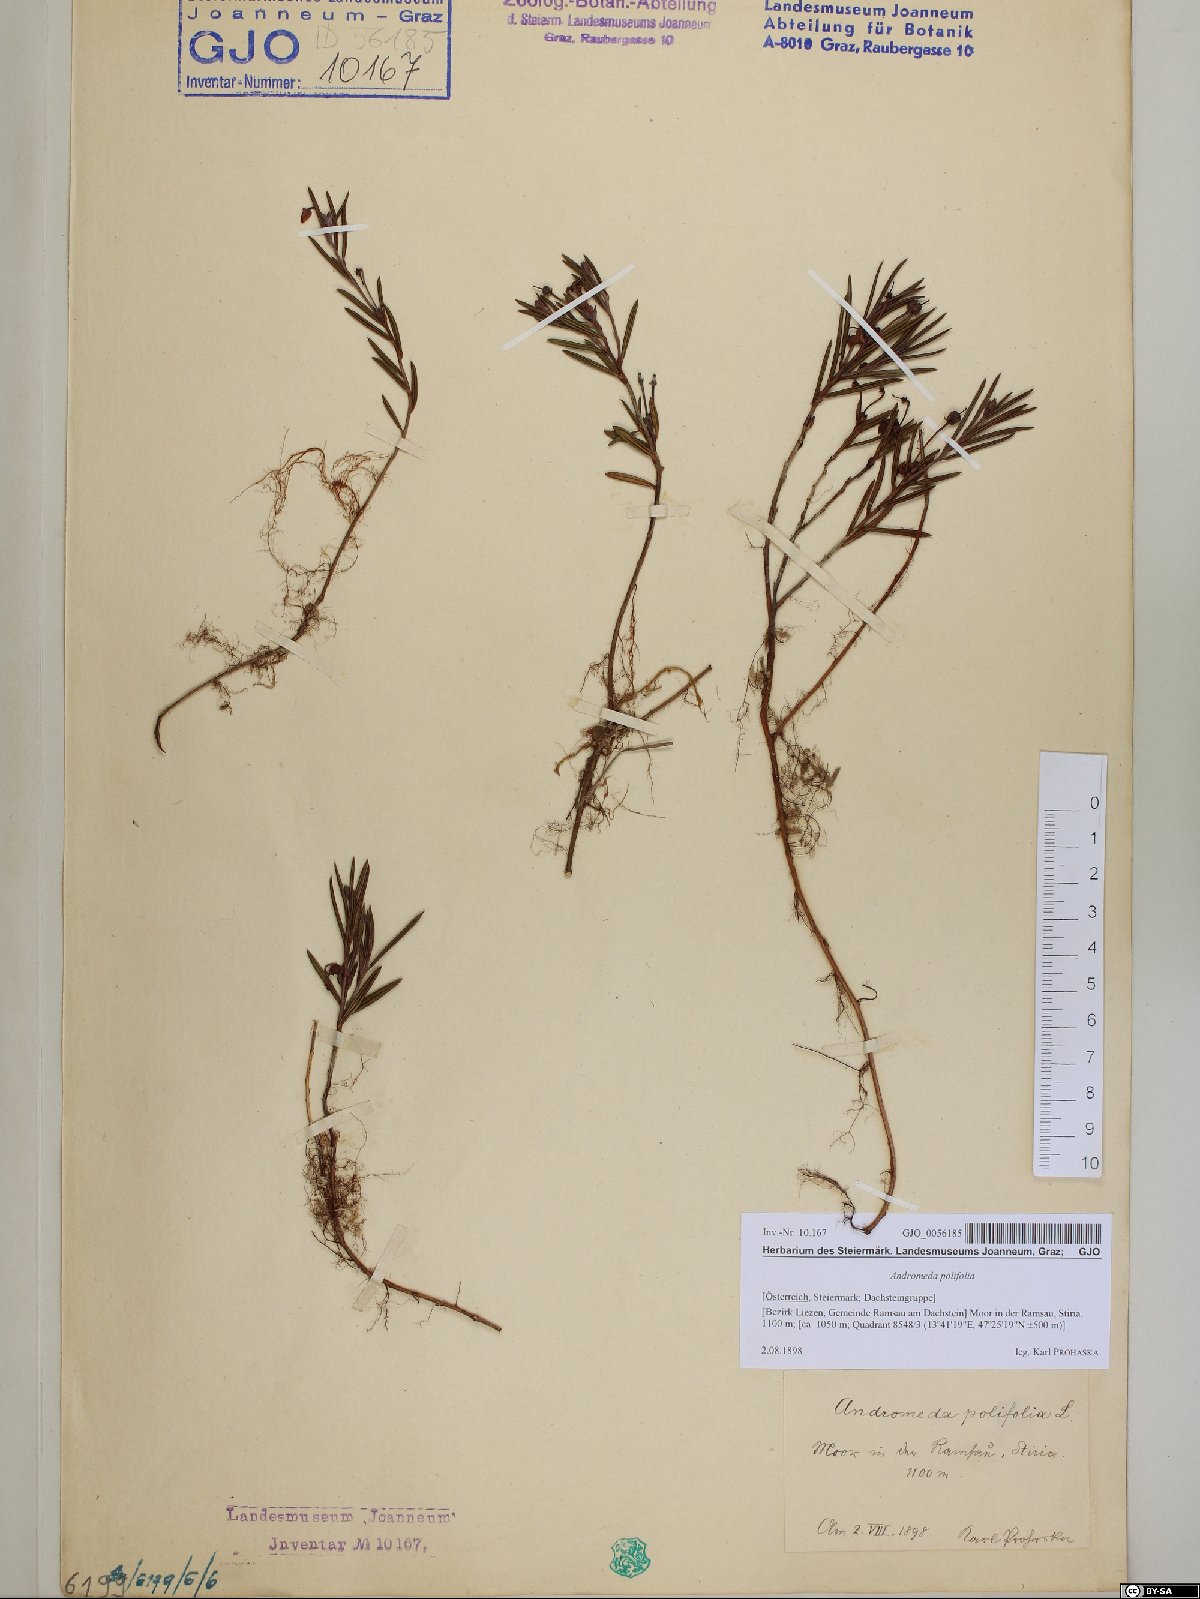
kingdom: Plantae
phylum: Tracheophyta
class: Magnoliopsida
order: Ericales
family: Ericaceae
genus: Andromeda
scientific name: Andromeda polifolia
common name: Bog-rosemary
